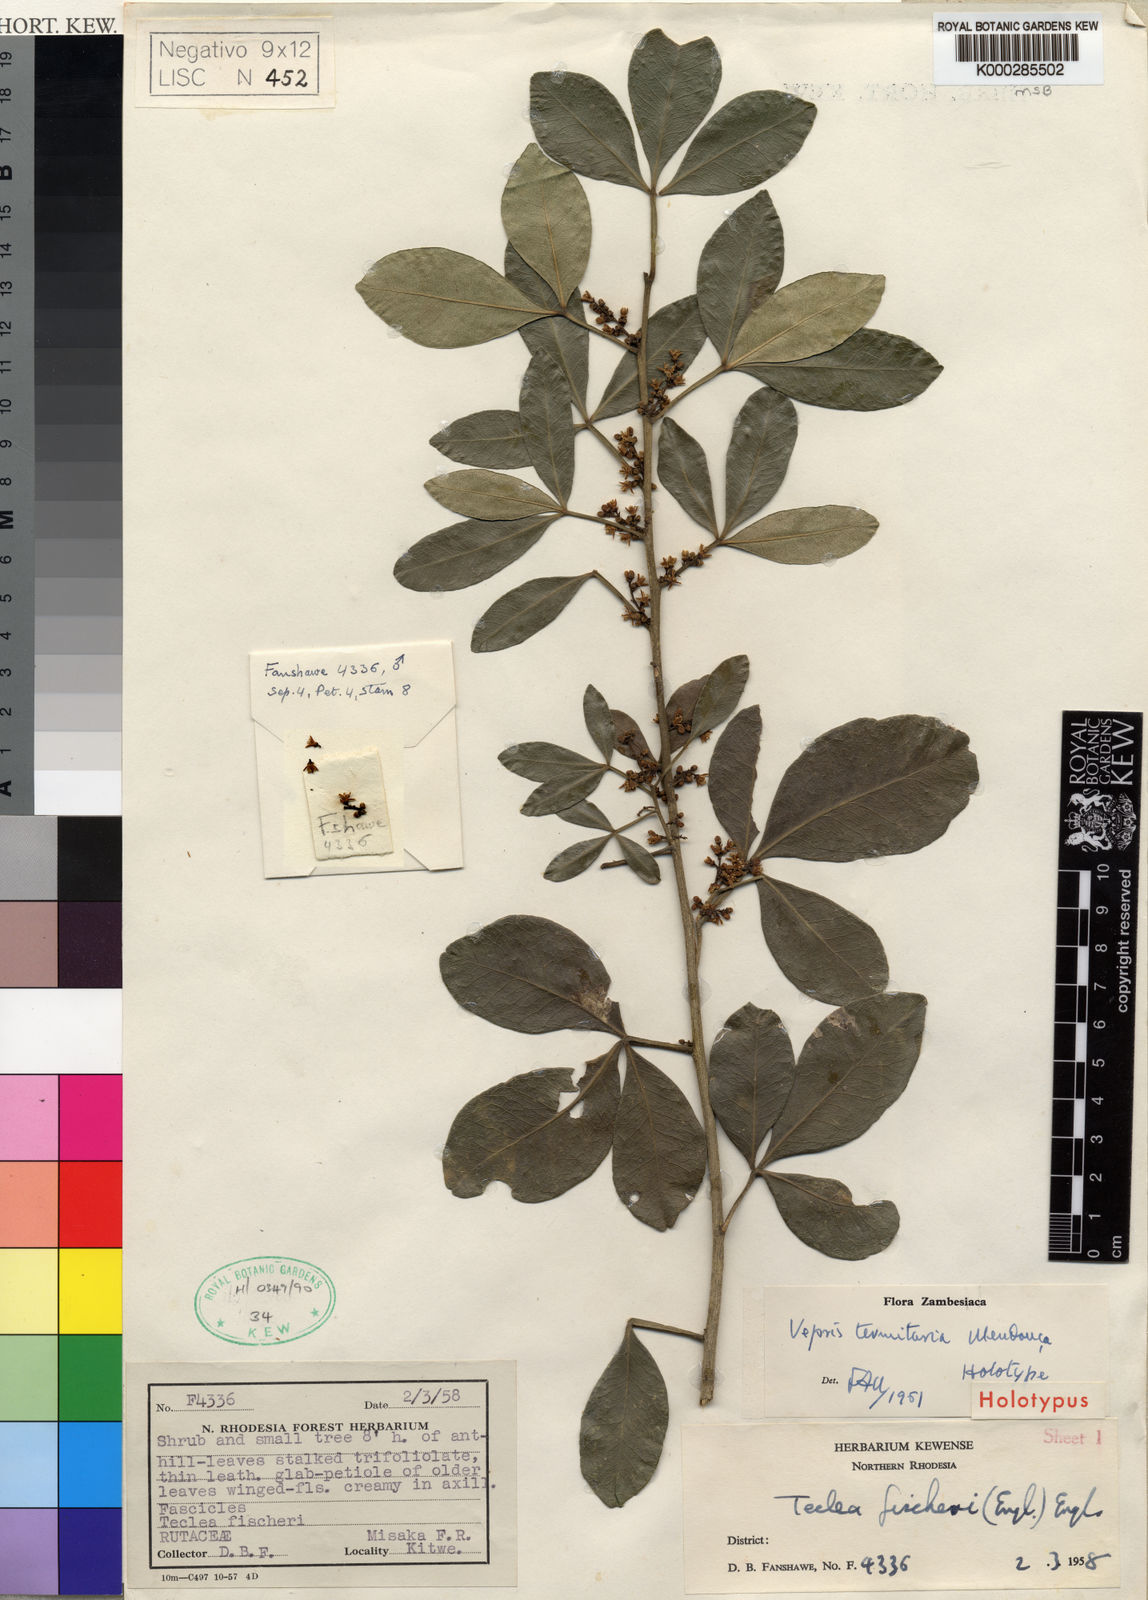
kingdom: Plantae
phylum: Tracheophyta
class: Magnoliopsida
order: Sapindales
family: Rutaceae
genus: Vepris
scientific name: Vepris
